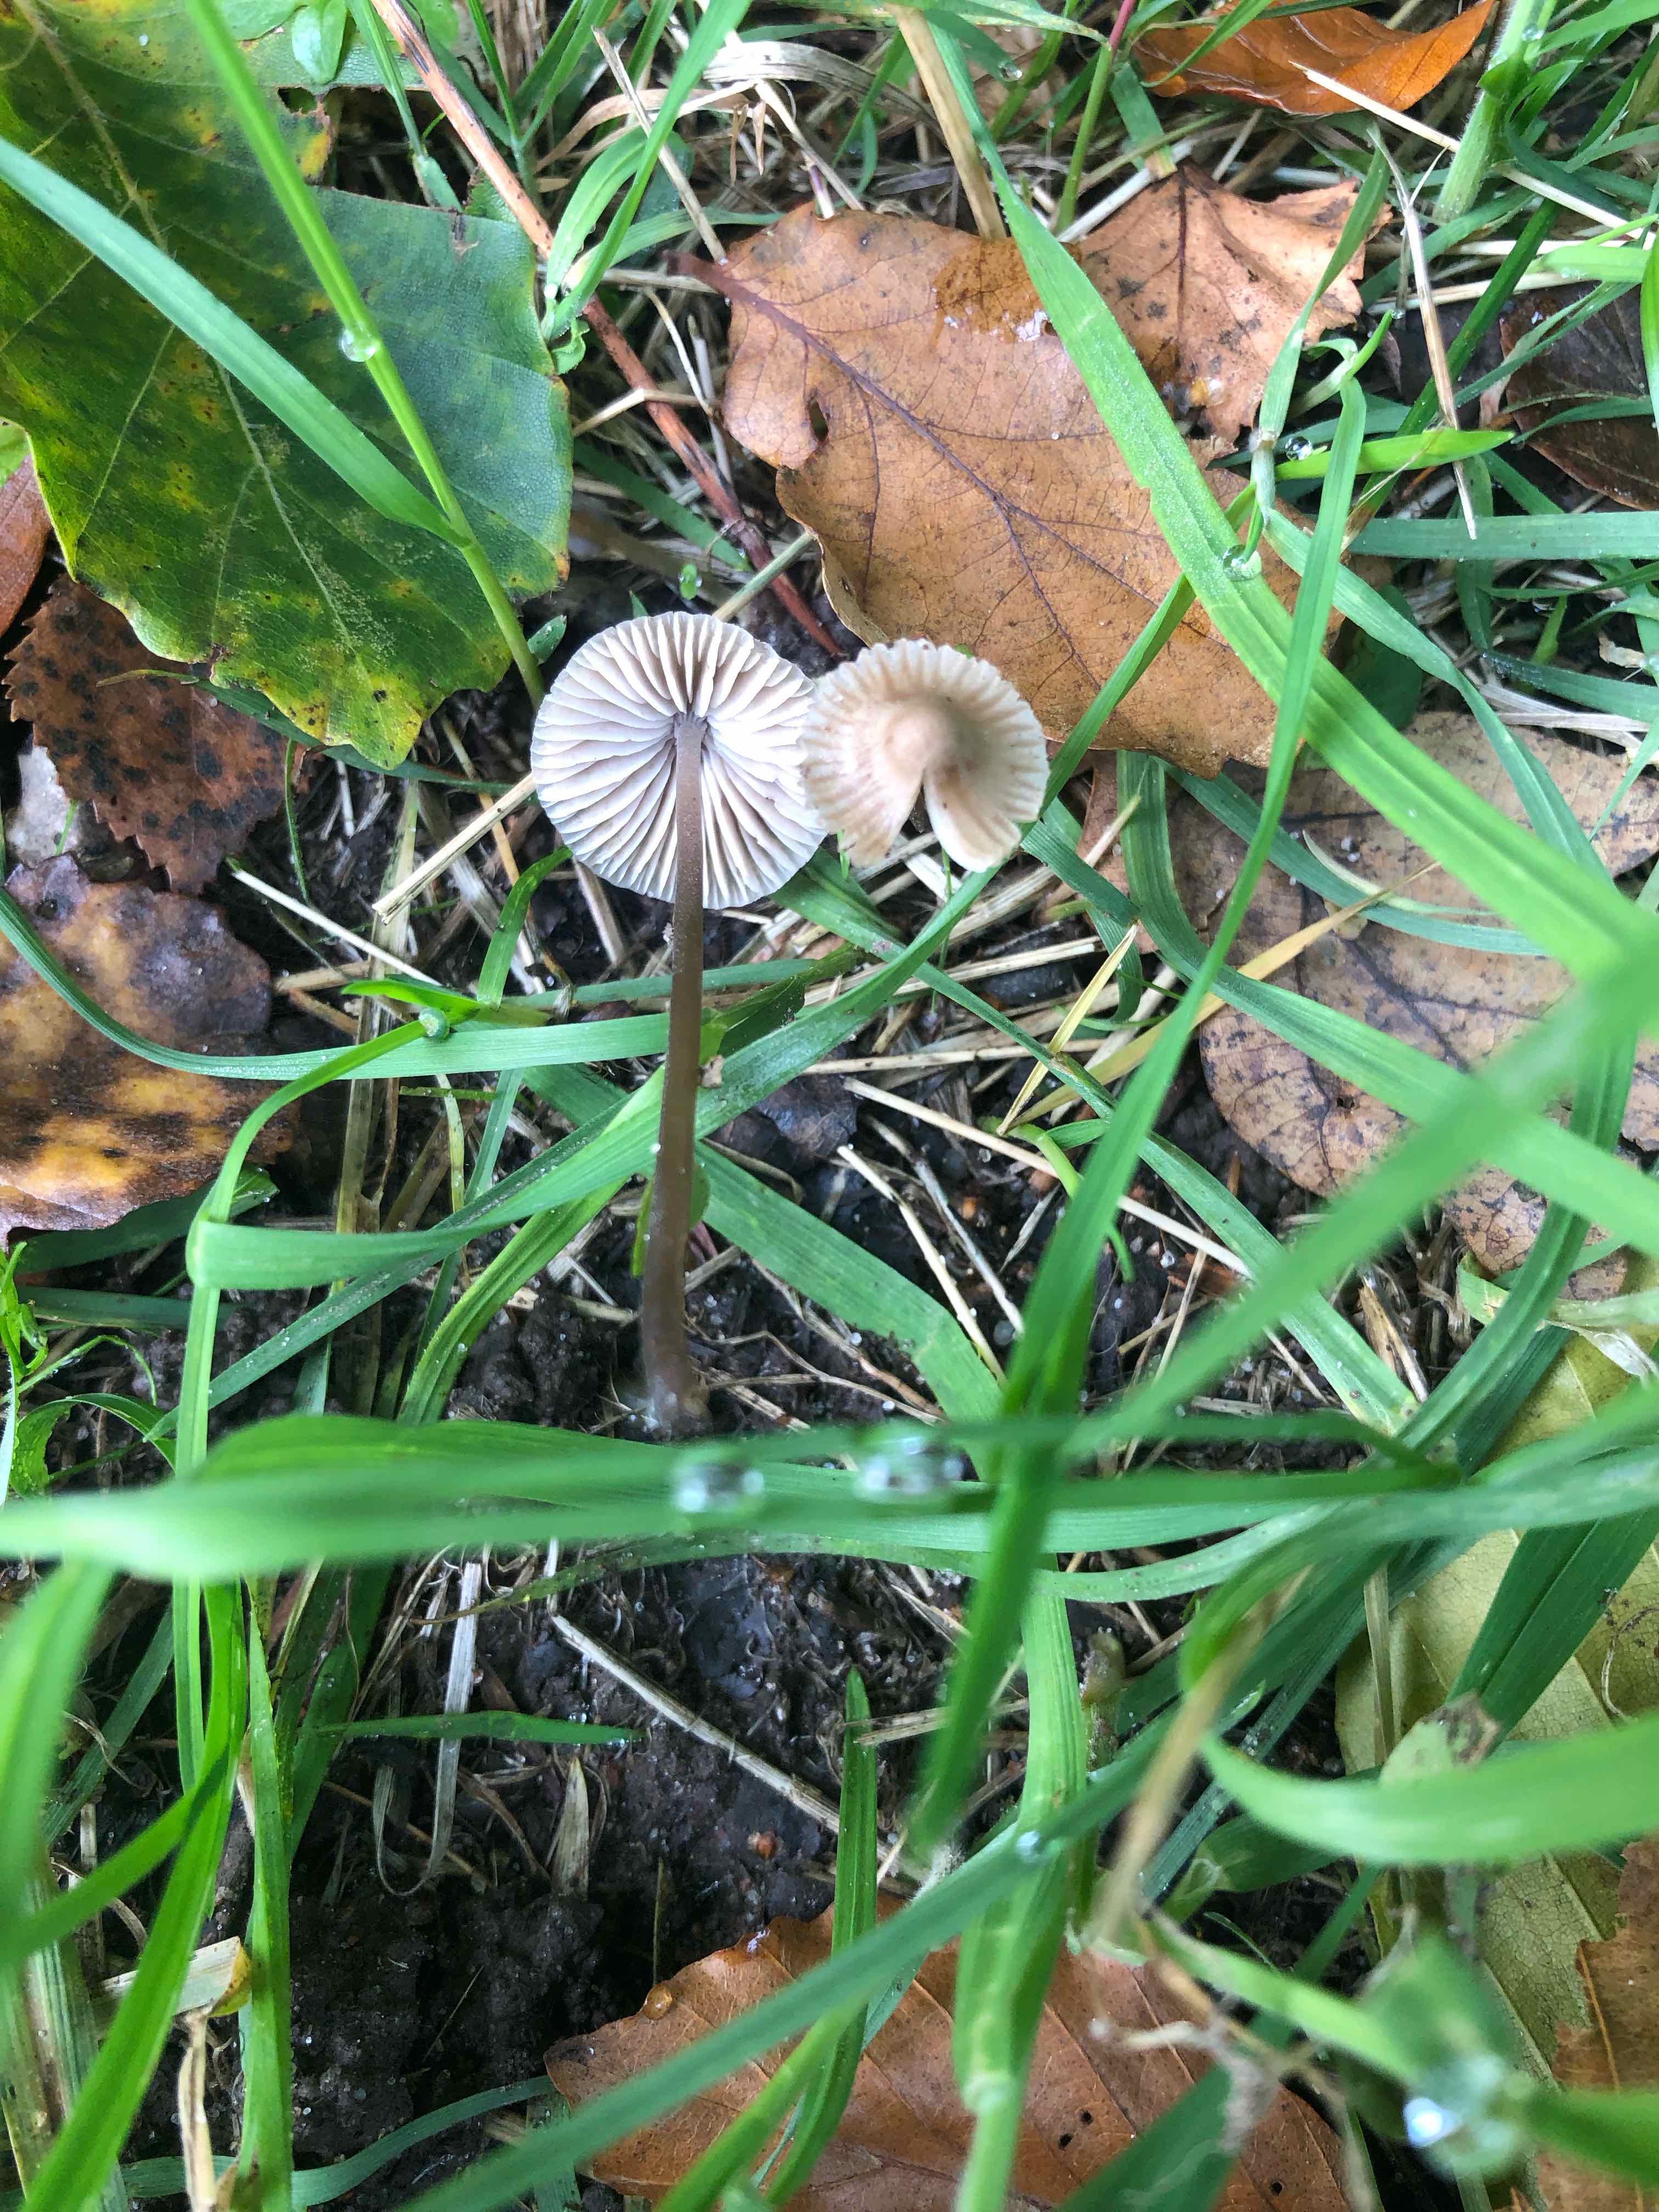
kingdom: Fungi
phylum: Basidiomycota
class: Agaricomycetes
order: Agaricales
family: Mycenaceae
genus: Mycena
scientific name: Mycena leptocephala
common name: klor-huesvamp
